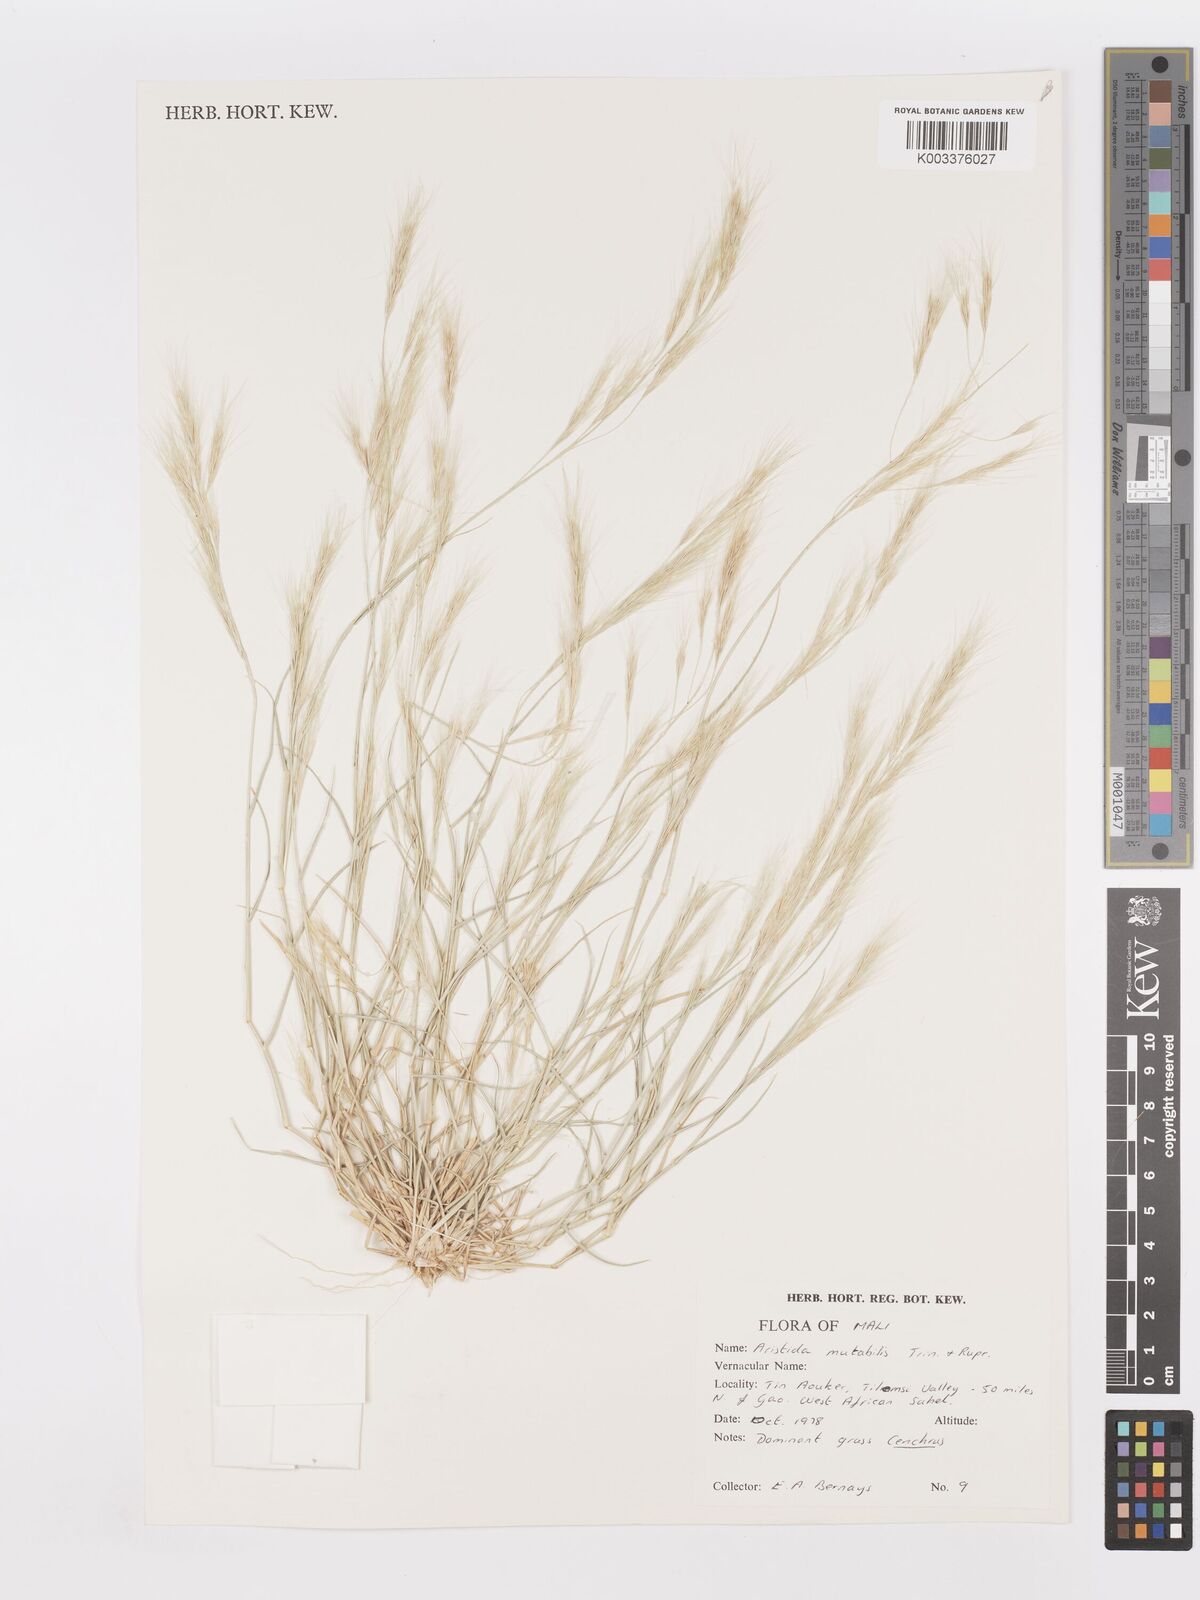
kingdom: Plantae
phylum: Tracheophyta
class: Liliopsida
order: Poales
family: Poaceae
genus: Aristida
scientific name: Aristida mutabilis
